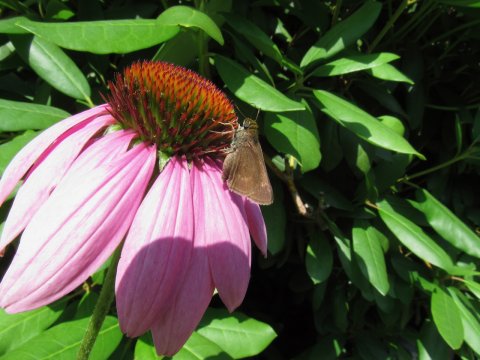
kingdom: Animalia
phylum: Arthropoda
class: Insecta
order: Lepidoptera
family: Hesperiidae
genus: Polites
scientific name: Polites egeremet
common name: Northern Broken-Dash
